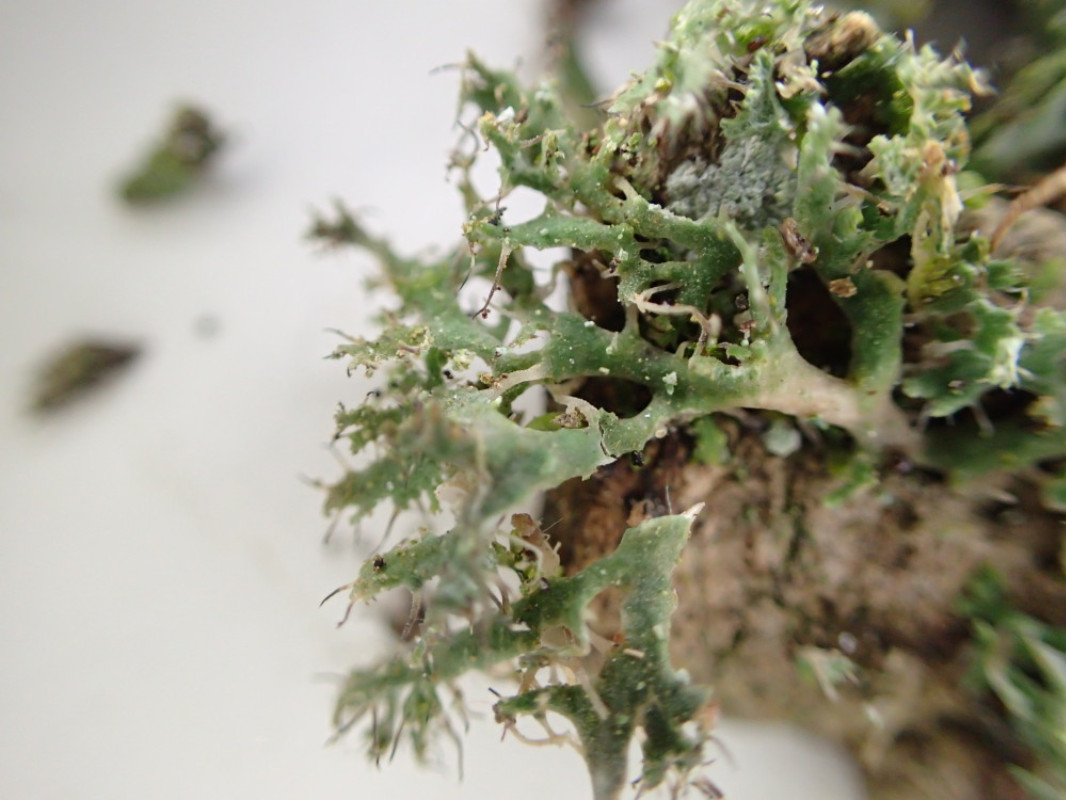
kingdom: Fungi
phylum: Ascomycota
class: Lecanoromycetes
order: Caliciales
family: Physciaceae
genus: Anaptychia
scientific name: Anaptychia ciliaris
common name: allé-frynselav
